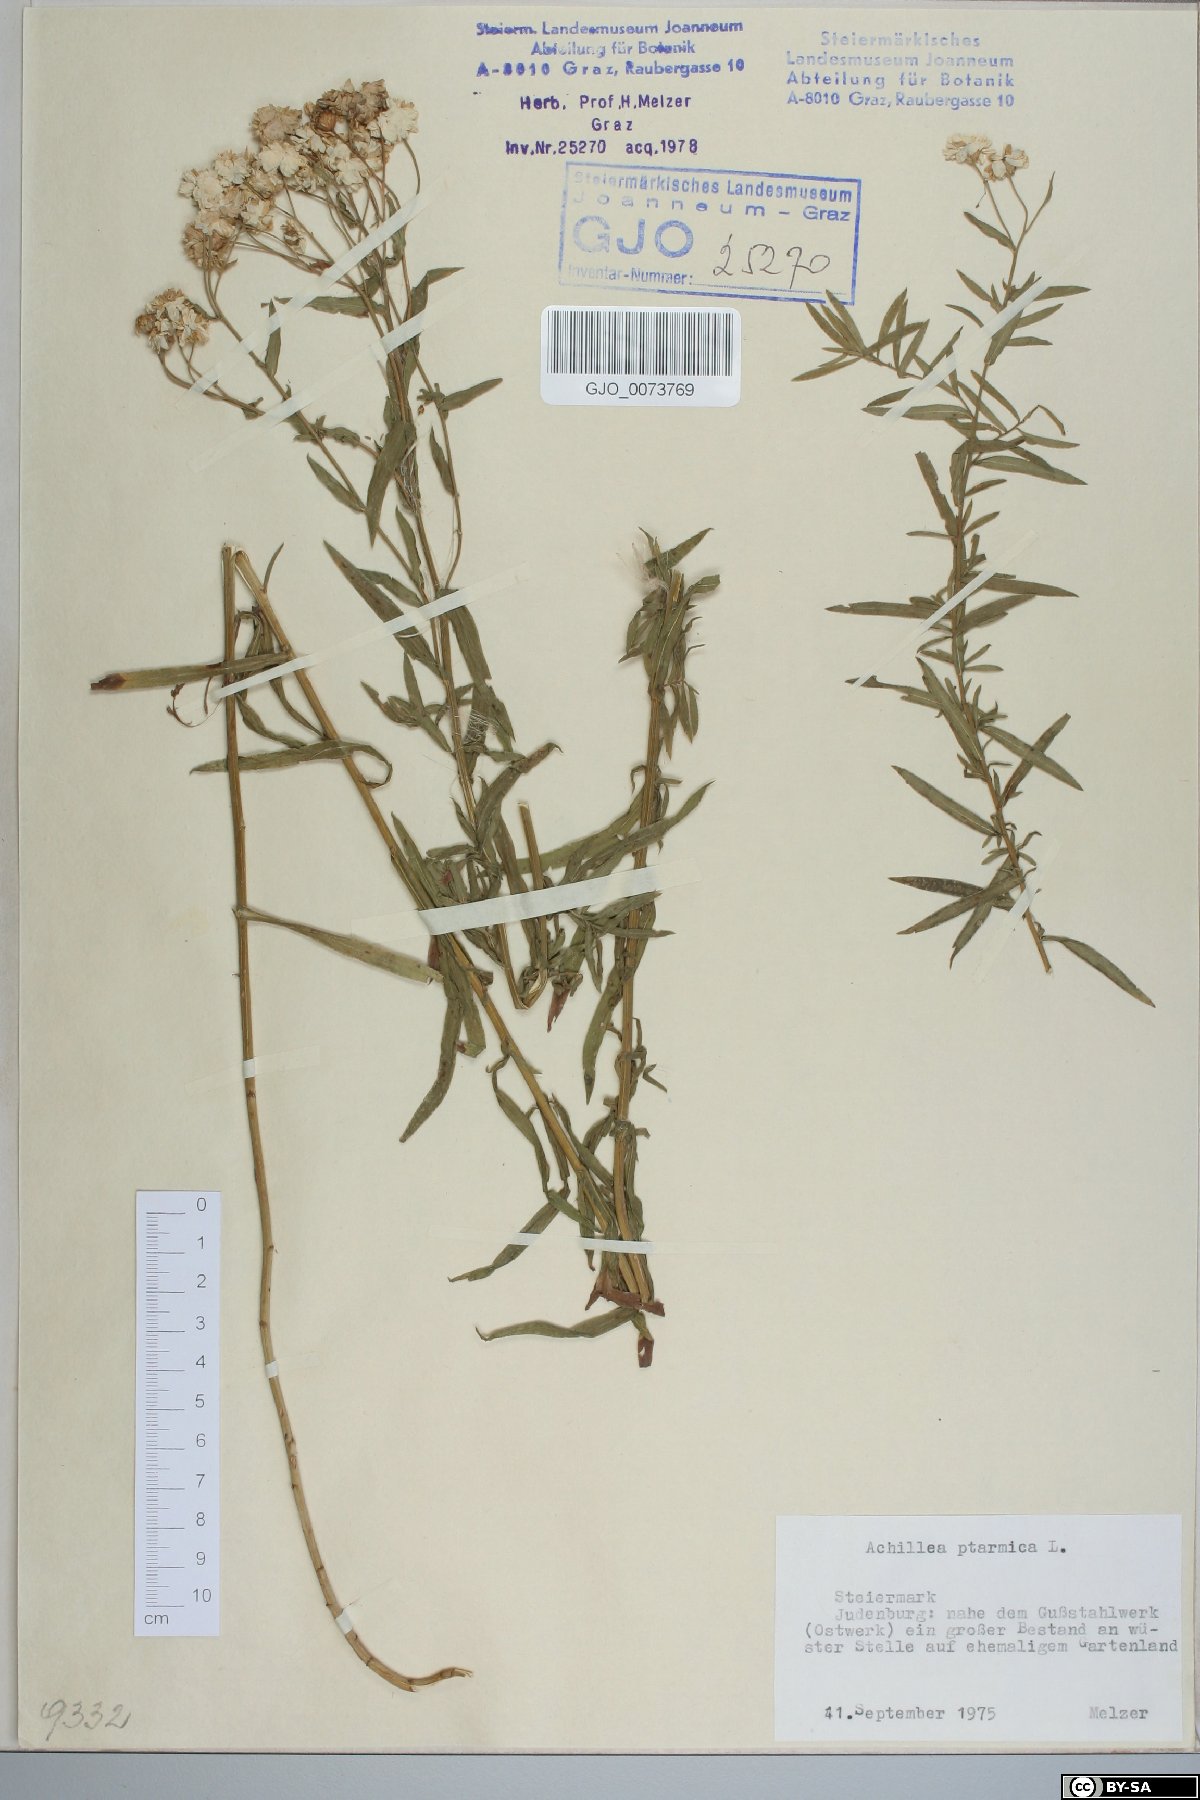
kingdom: Plantae
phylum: Tracheophyta
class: Magnoliopsida
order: Asterales
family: Asteraceae
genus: Achillea
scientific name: Achillea ptarmica
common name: Sneezeweed
